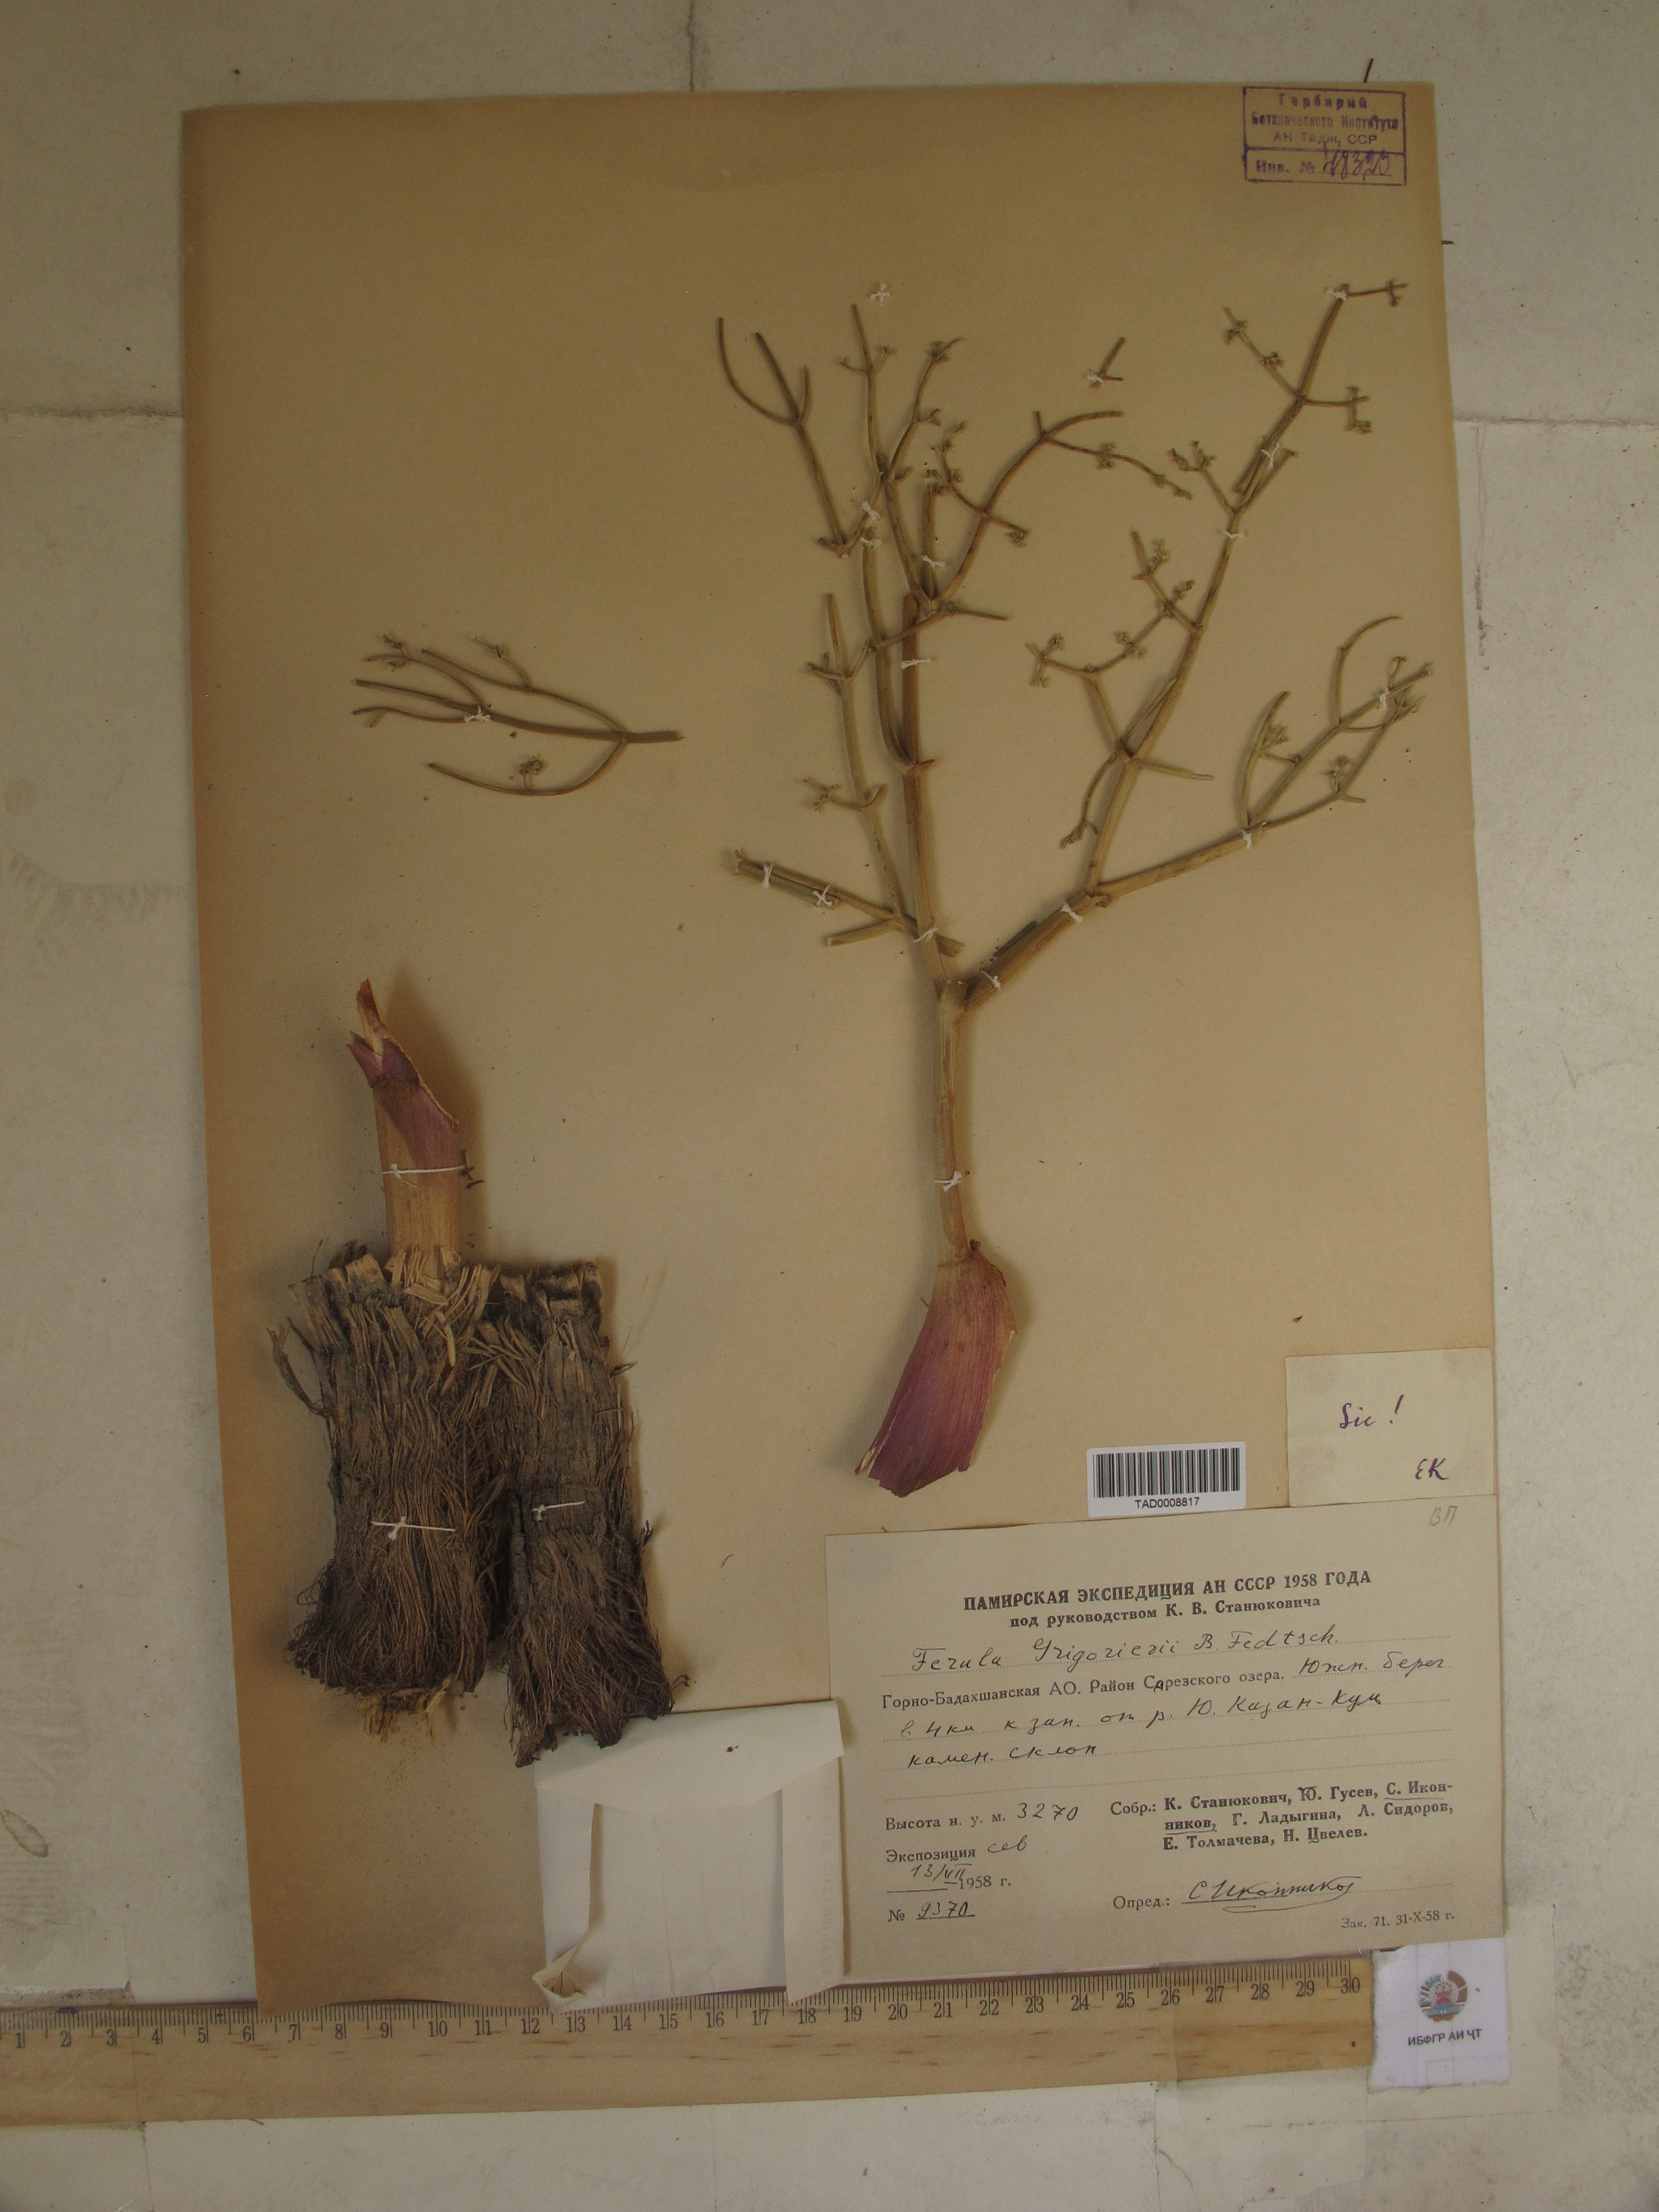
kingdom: Plantae
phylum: Tracheophyta
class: Magnoliopsida
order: Apiales
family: Apiaceae
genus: Ferula
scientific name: Ferula grigoriewii
